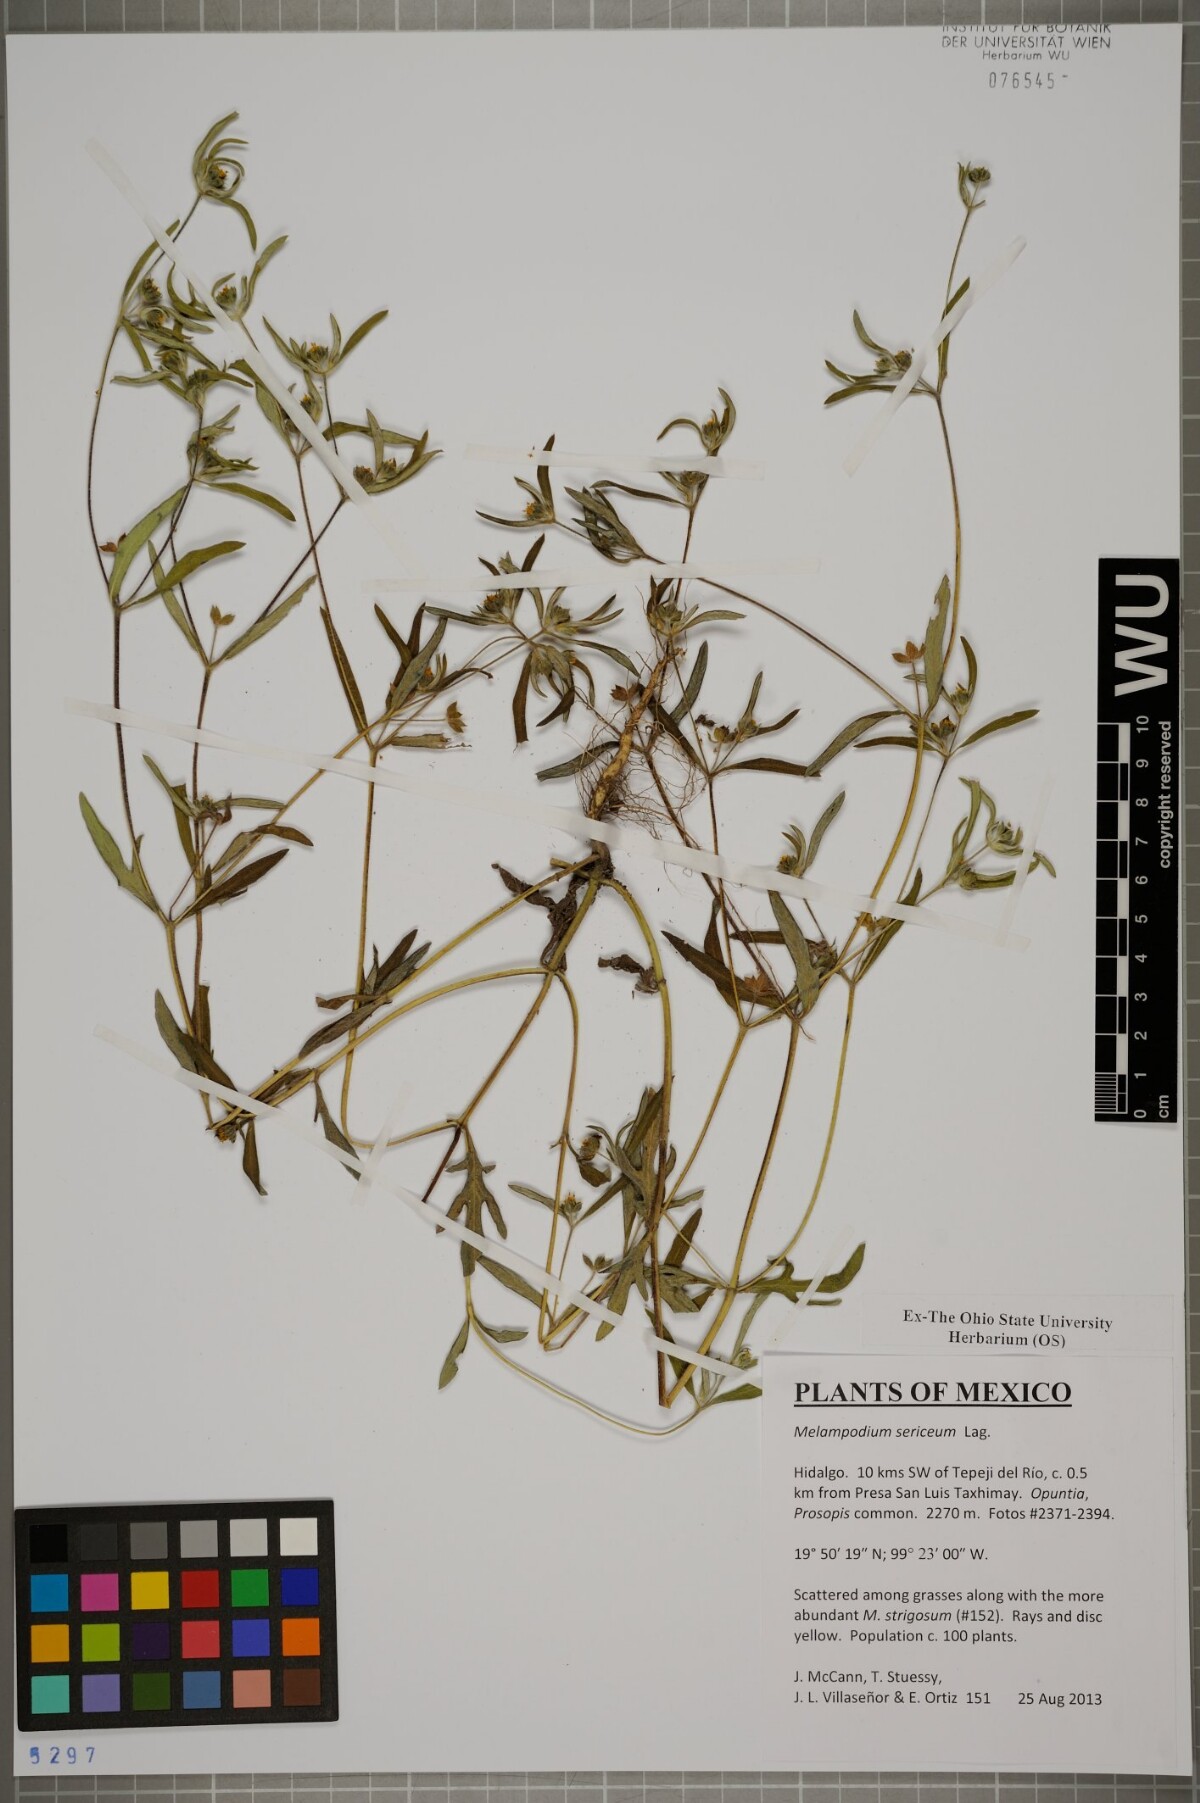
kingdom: Plantae
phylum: Tracheophyta
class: Magnoliopsida
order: Asterales
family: Asteraceae
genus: Melampodium
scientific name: Melampodium sericeum
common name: Rough blackfoot
